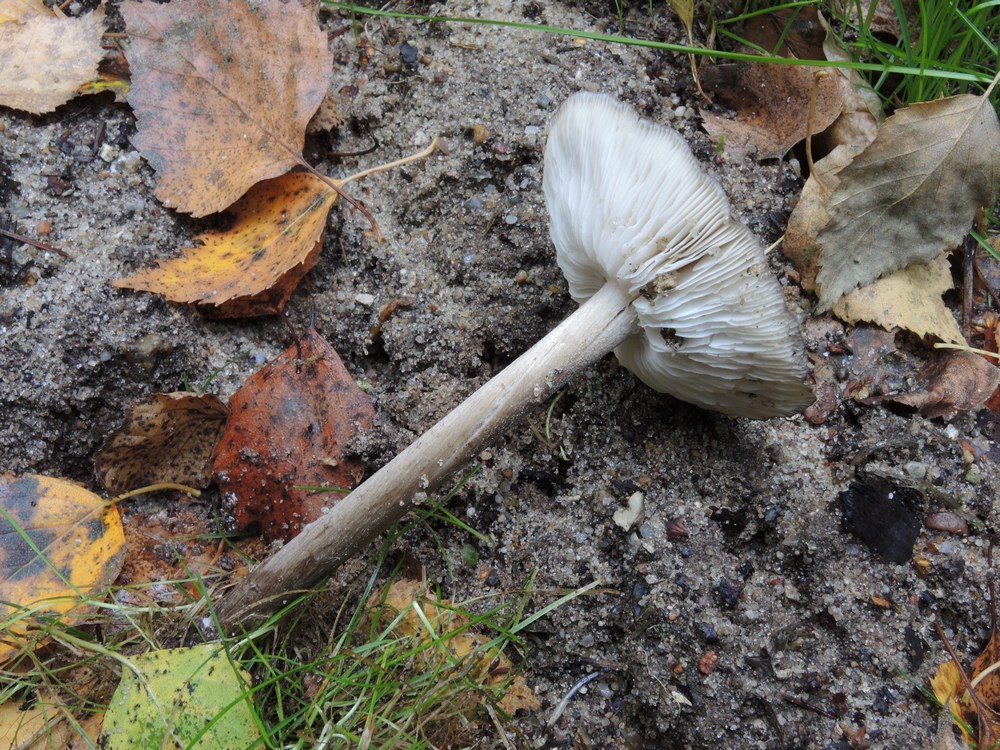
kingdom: Fungi
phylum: Basidiomycota
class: Agaricomycetes
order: Agaricales
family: Tricholomataceae
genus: Melanoleuca
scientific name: Melanoleuca polioleuca
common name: hvidbladet munkehat
